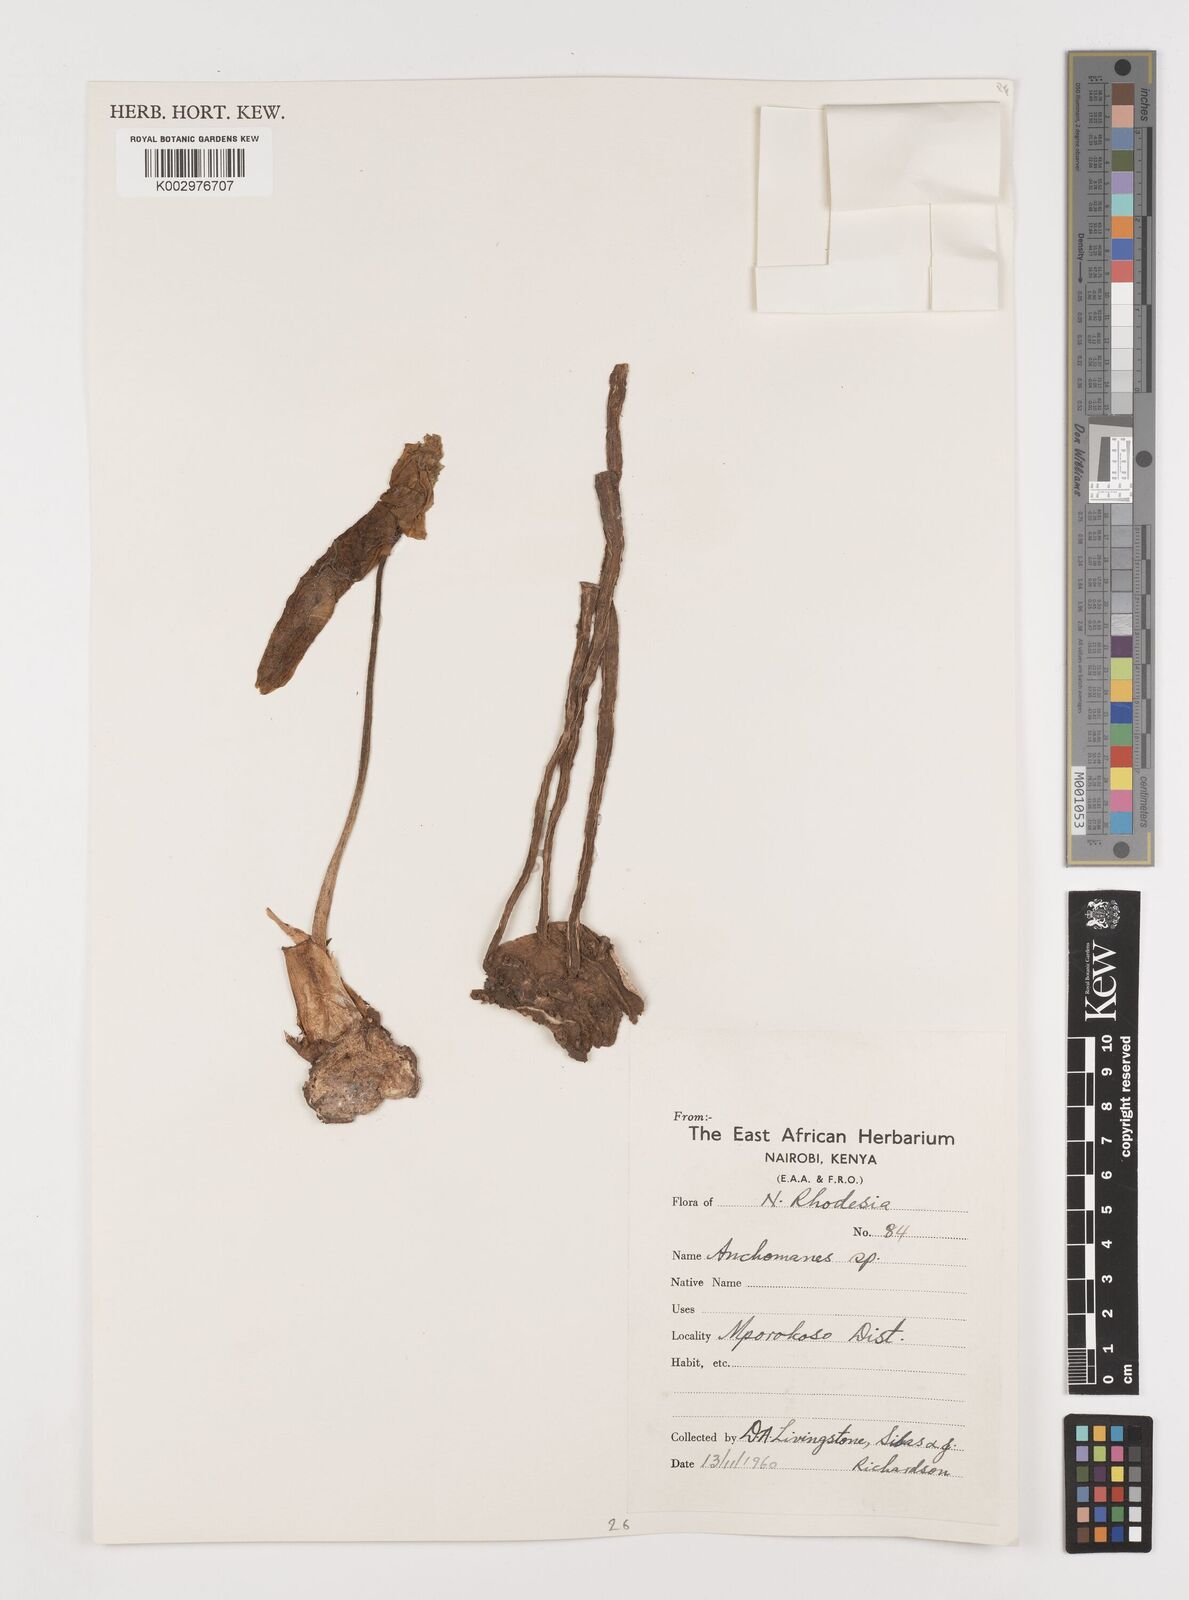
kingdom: Plantae
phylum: Tracheophyta
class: Liliopsida
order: Alismatales
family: Araceae
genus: Anchomanes
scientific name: Anchomanes difformis
